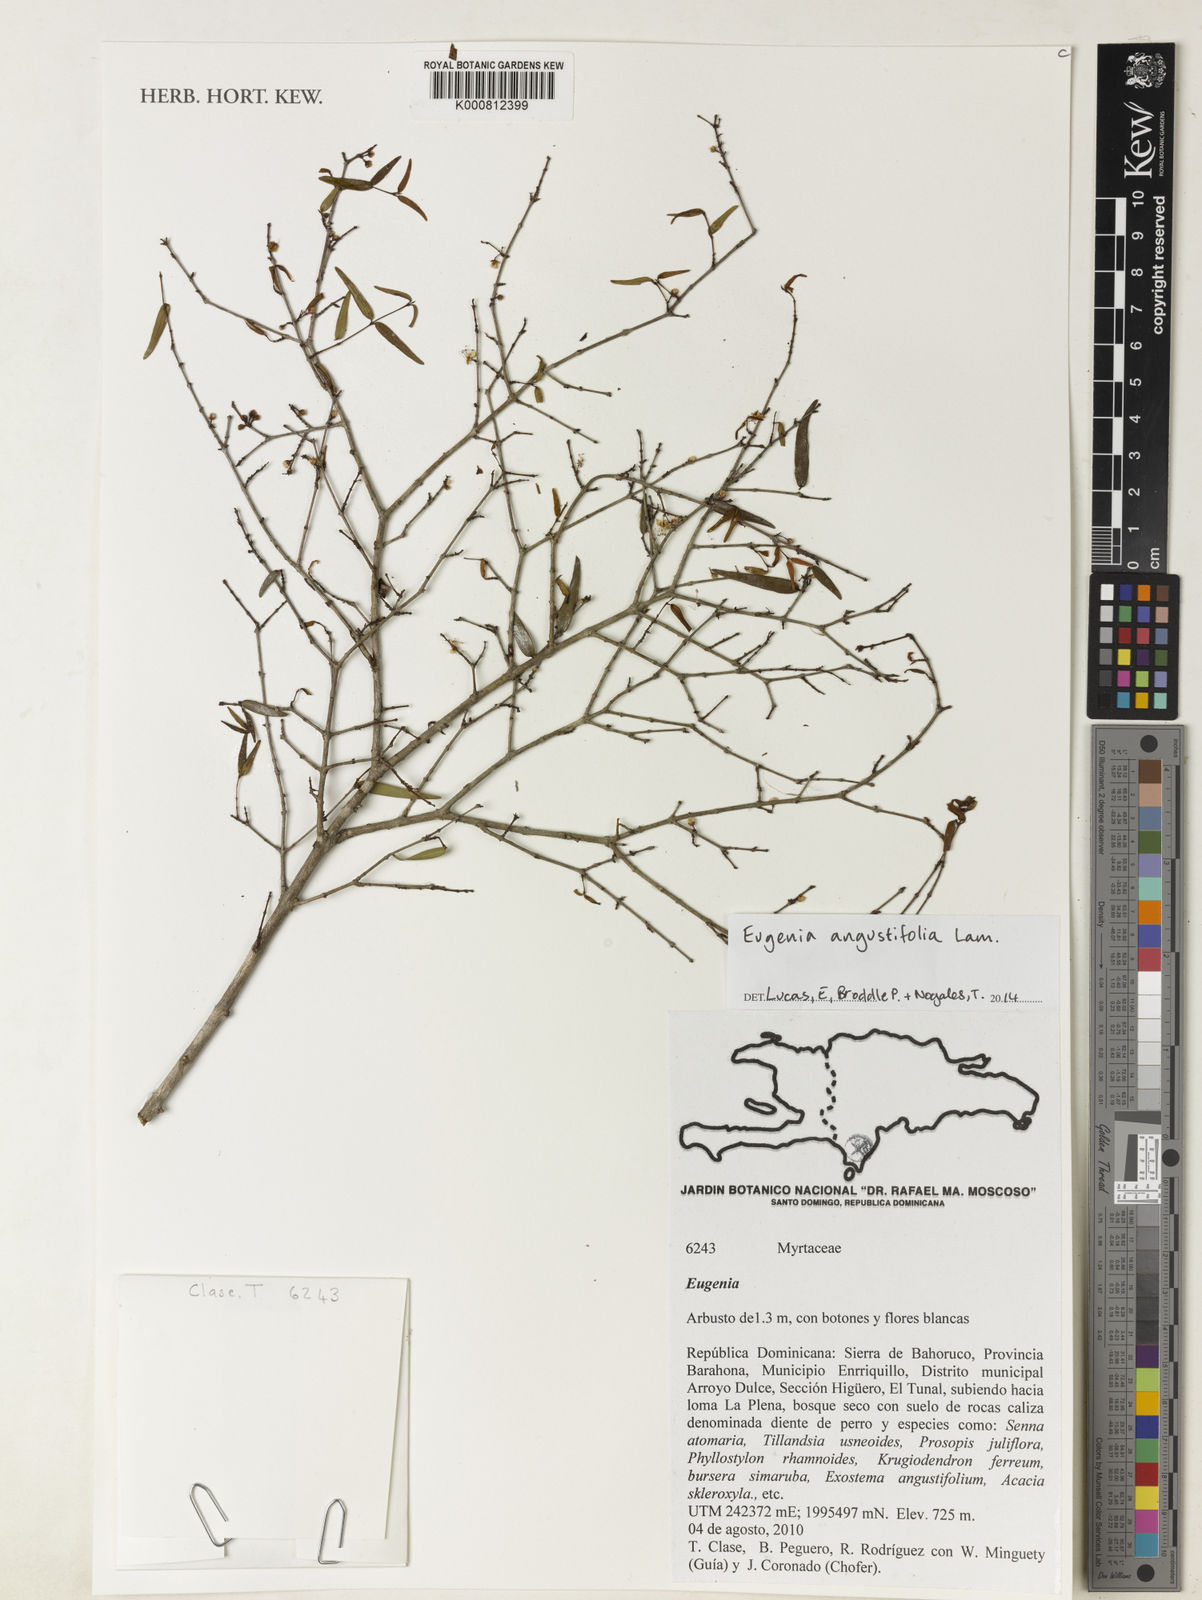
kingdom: Plantae
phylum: Tracheophyta
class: Magnoliopsida
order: Myrtales
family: Myrtaceae
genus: Eugenia
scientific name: Eugenia pomifera
